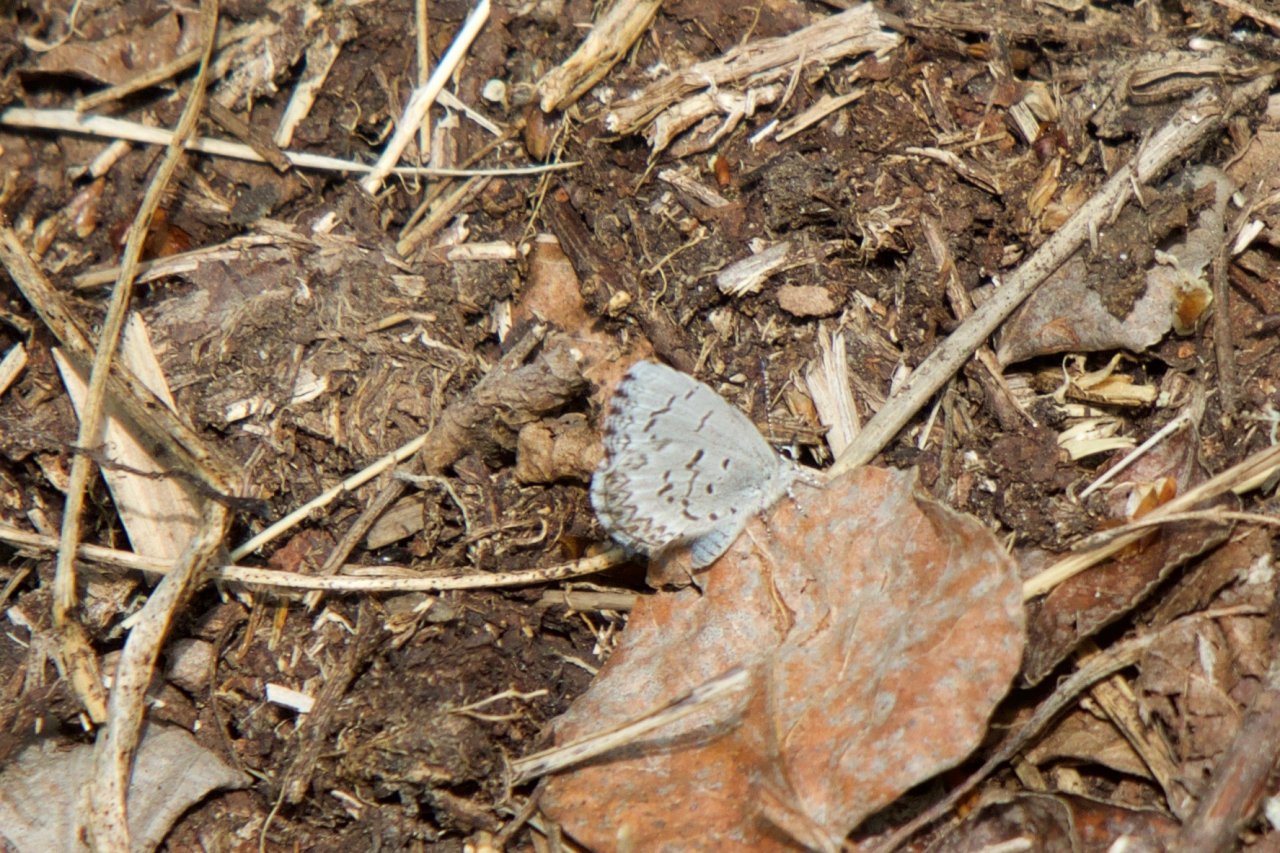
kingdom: Animalia
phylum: Arthropoda
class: Insecta
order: Lepidoptera
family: Lycaenidae
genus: Celastrina
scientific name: Celastrina lucia
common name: Northern Spring Azure
